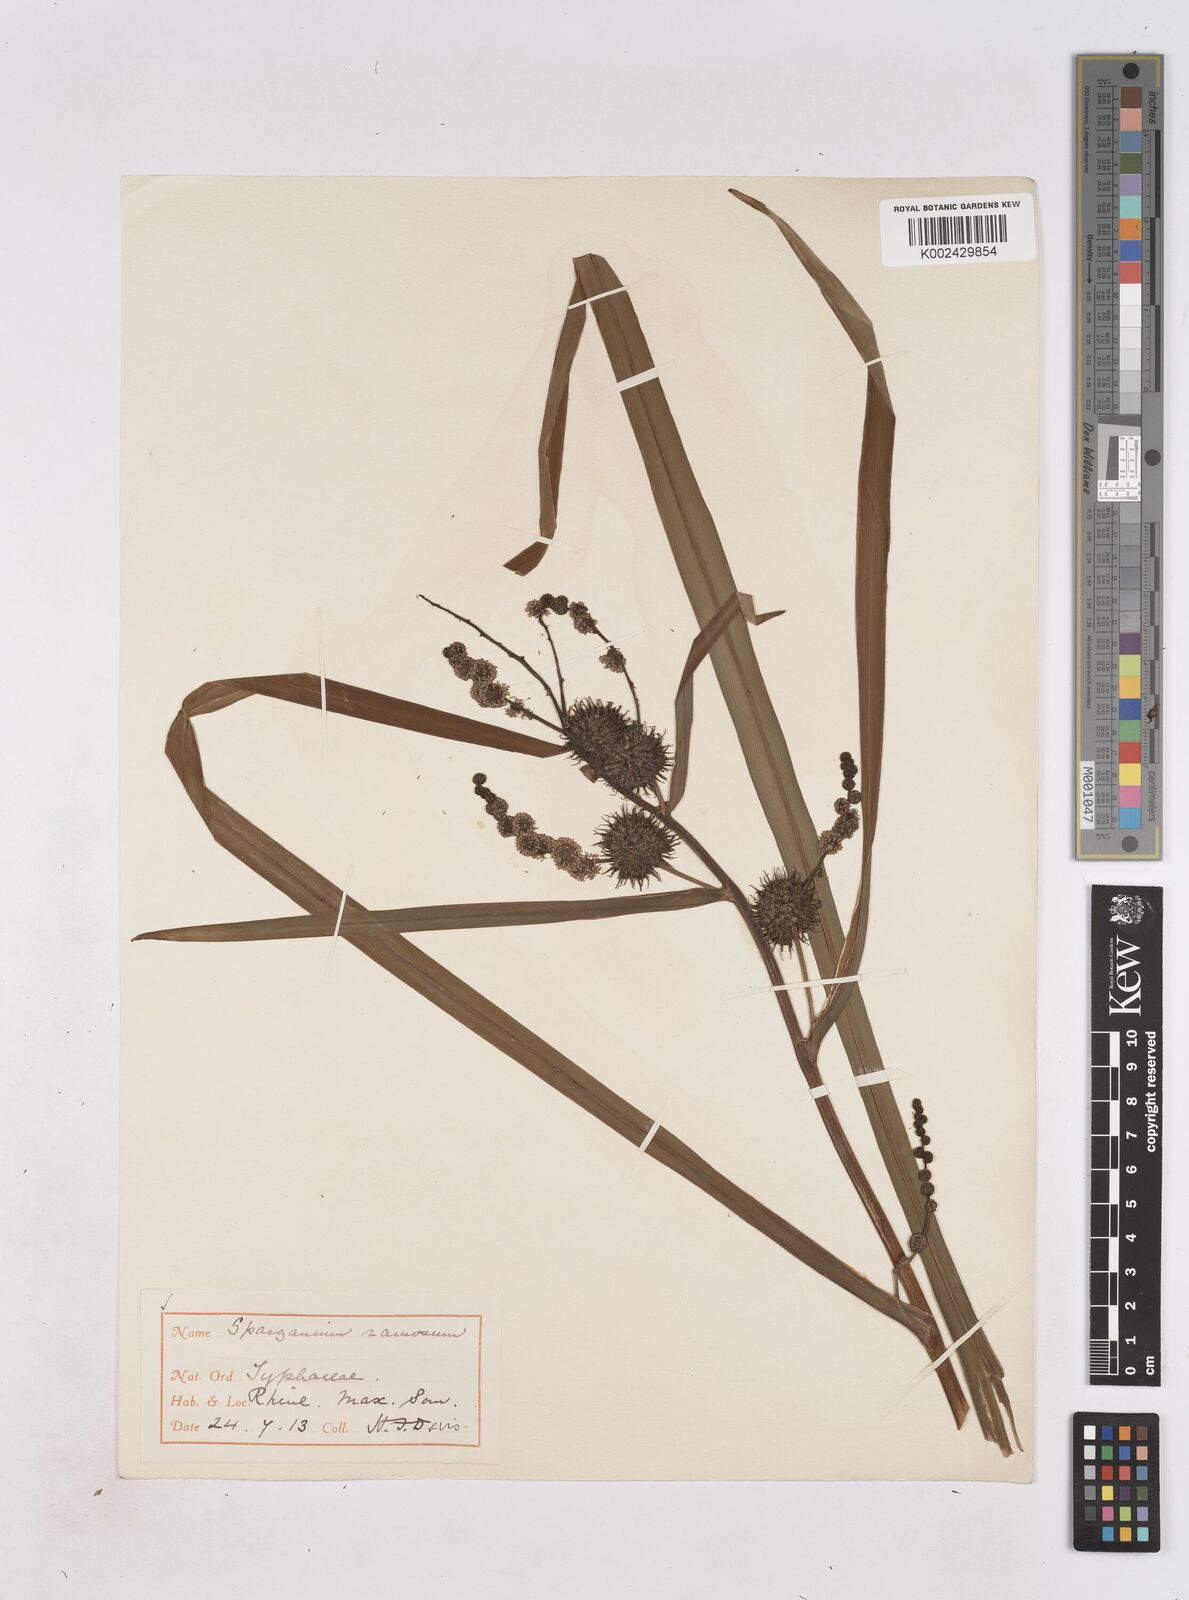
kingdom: Plantae
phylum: Tracheophyta
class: Liliopsida
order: Poales
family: Typhaceae
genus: Sparganium
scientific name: Sparganium erectum
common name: Branched bur-reed
